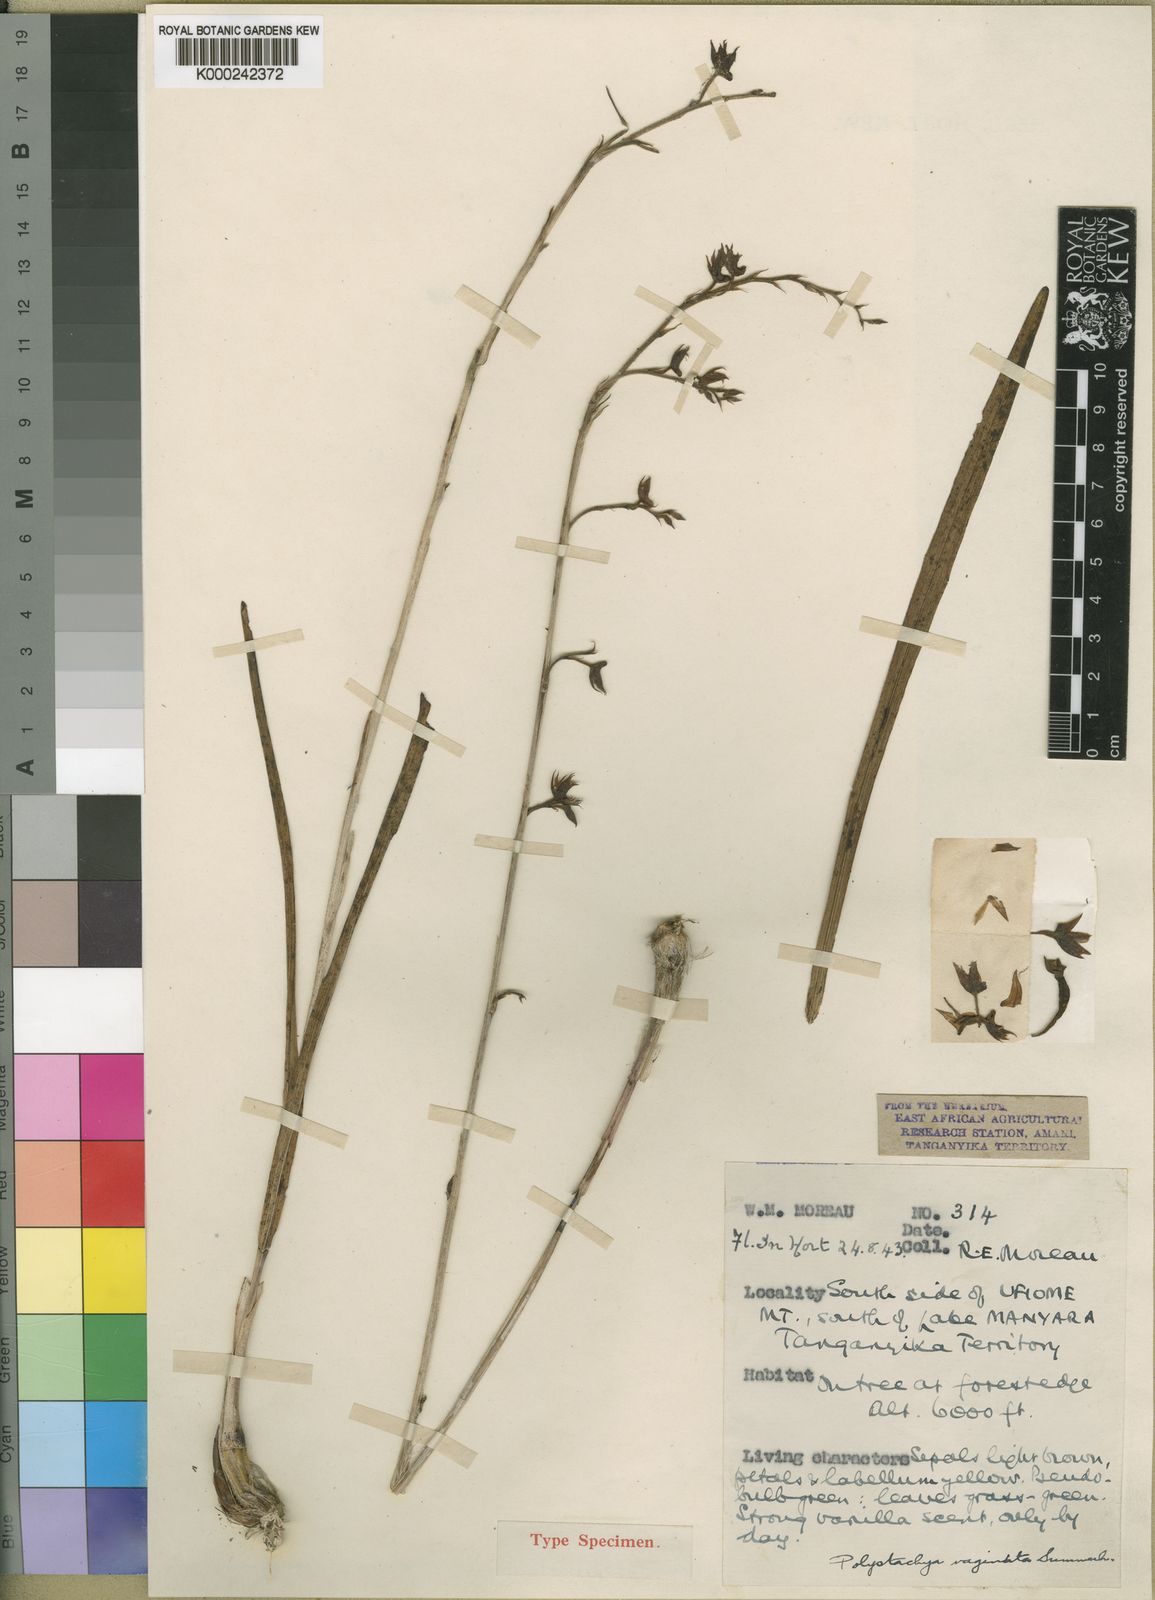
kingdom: Plantae
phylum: Tracheophyta
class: Liliopsida
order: Asparagales
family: Orchidaceae
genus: Polystachya
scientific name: Polystachya vaginata
